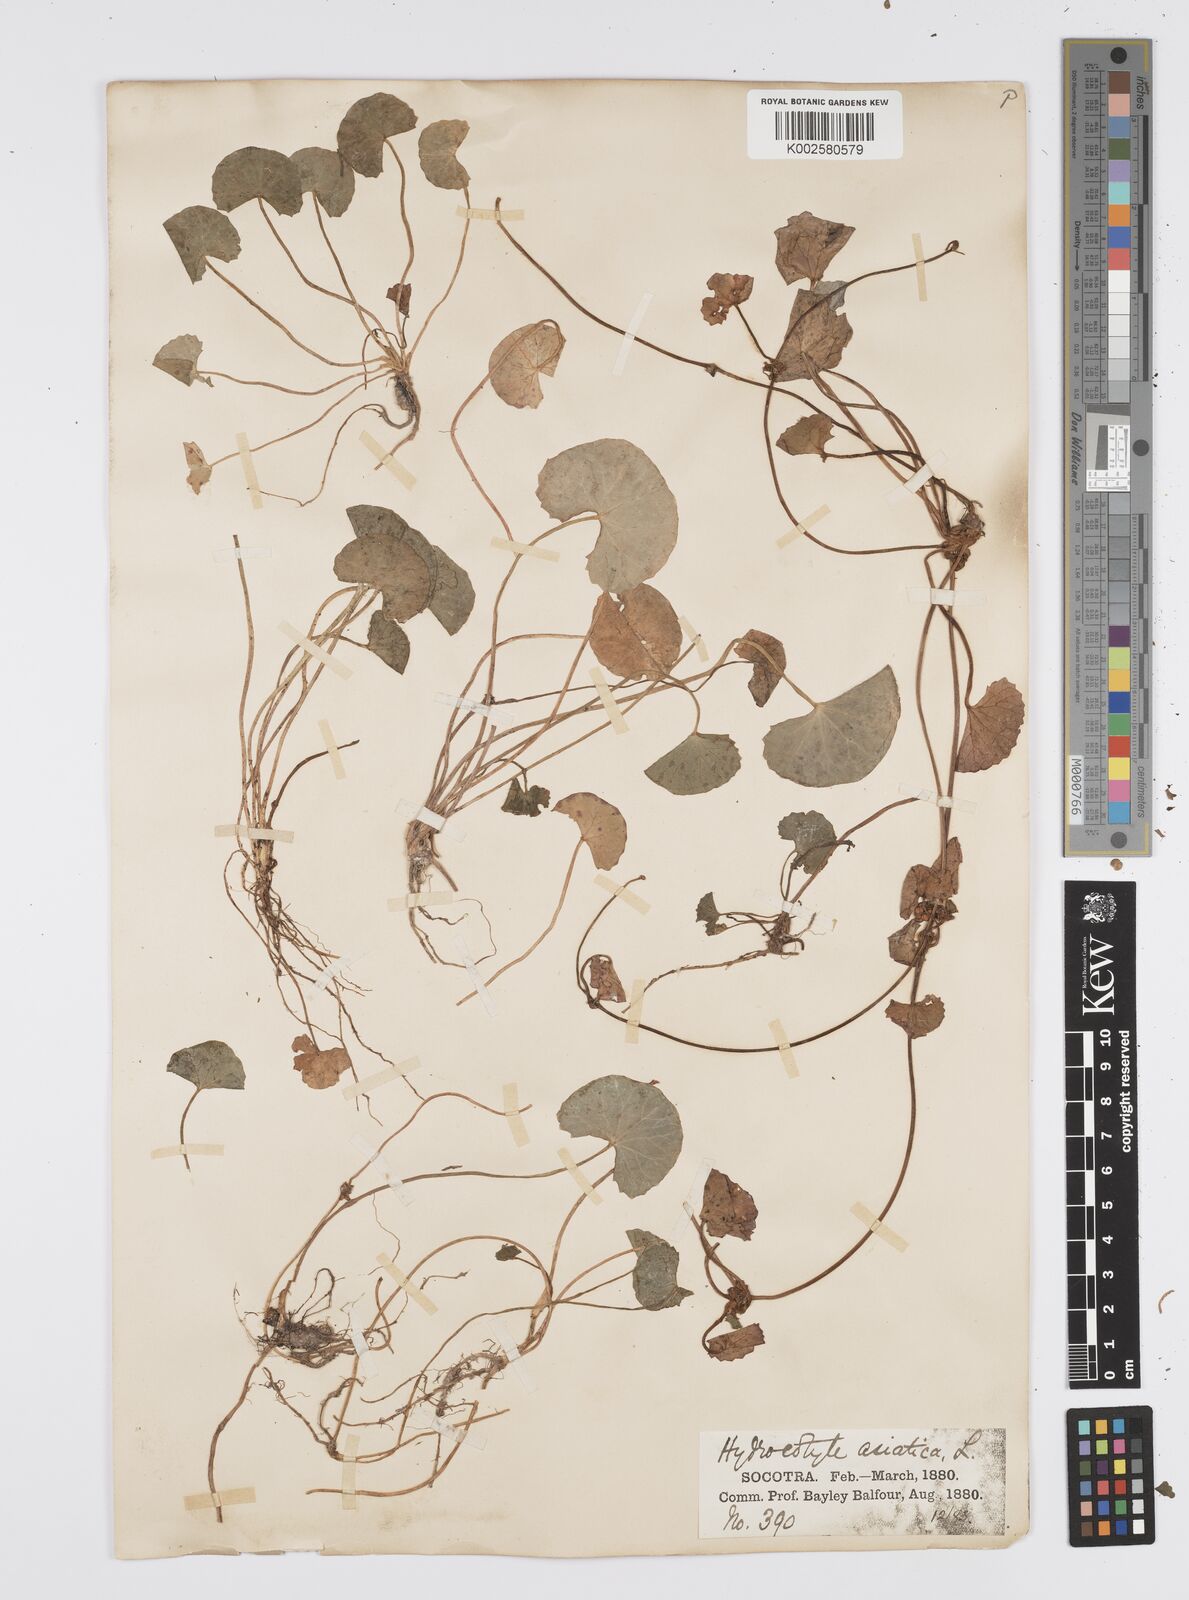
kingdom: Plantae
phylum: Tracheophyta
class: Magnoliopsida
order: Apiales
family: Apiaceae
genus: Centella
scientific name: Centella asiatica
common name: Spadeleaf
